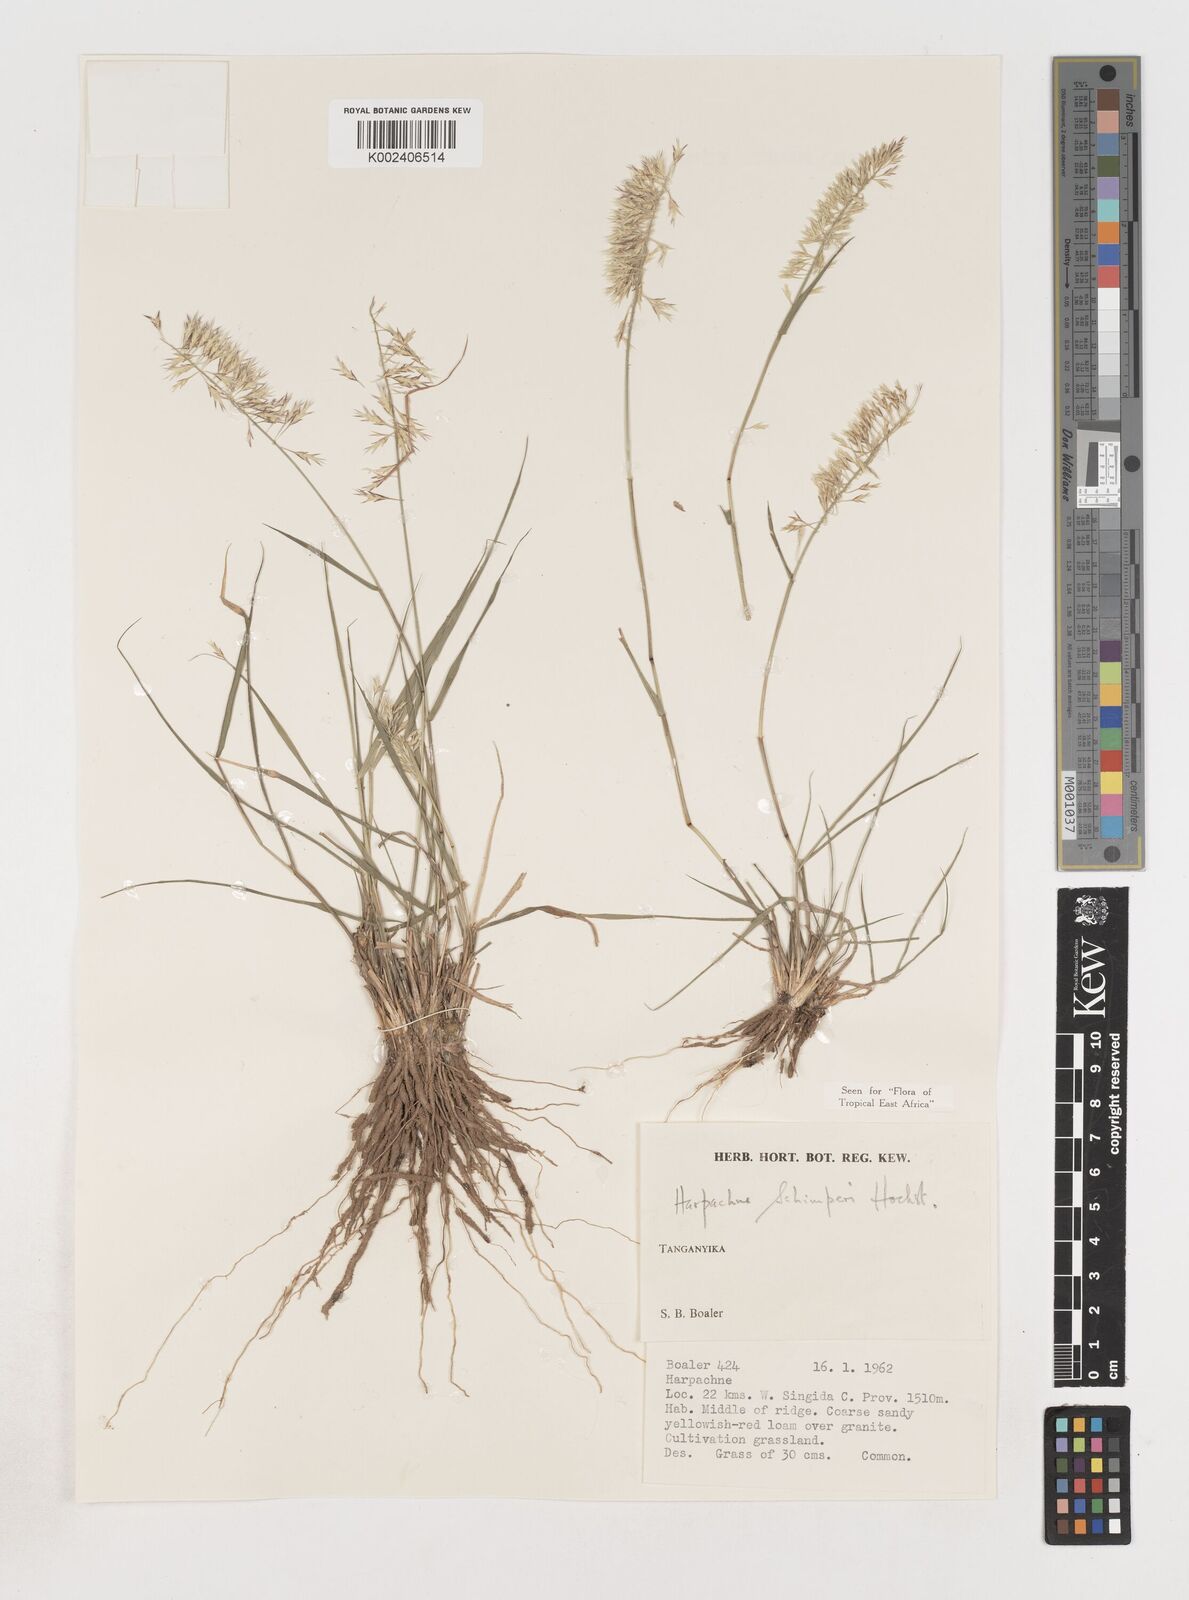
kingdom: Plantae
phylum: Tracheophyta
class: Liliopsida
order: Poales
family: Poaceae
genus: Harpachne
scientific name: Harpachne schimperi
